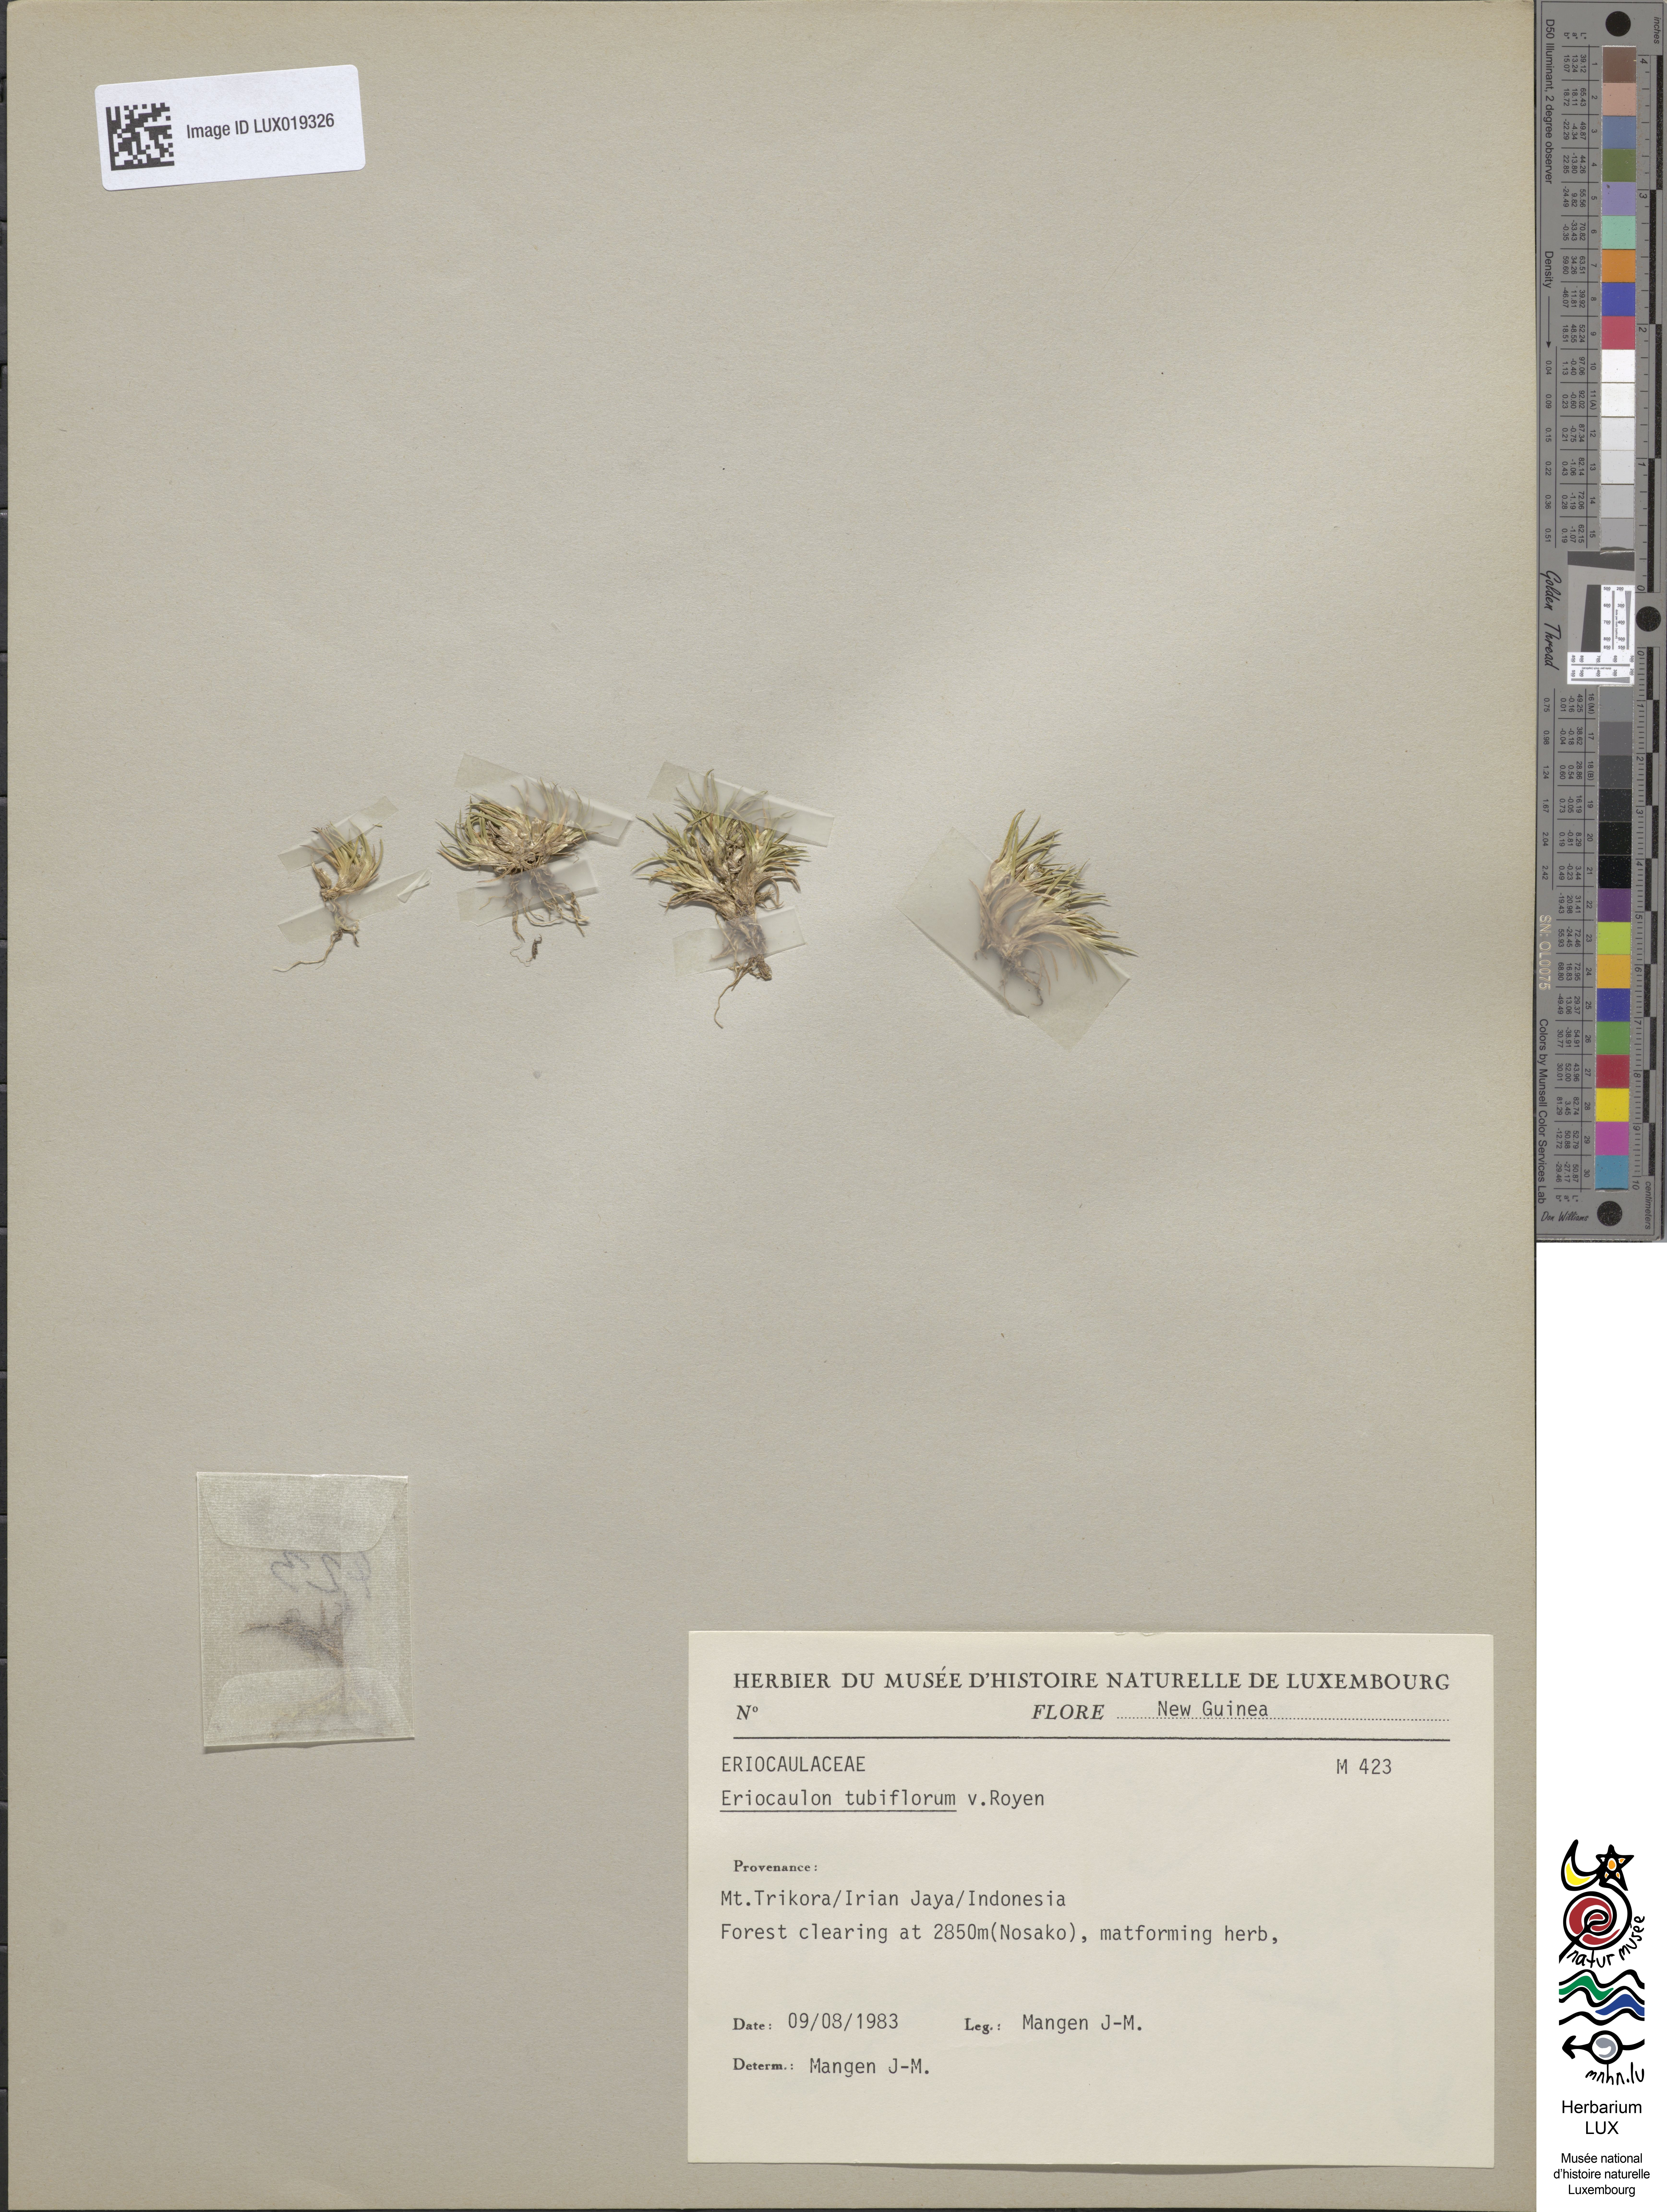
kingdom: Plantae
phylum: Tracheophyta
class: Liliopsida
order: Poales
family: Eriocaulaceae
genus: Eriocaulon
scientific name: Eriocaulon tubiflorum
